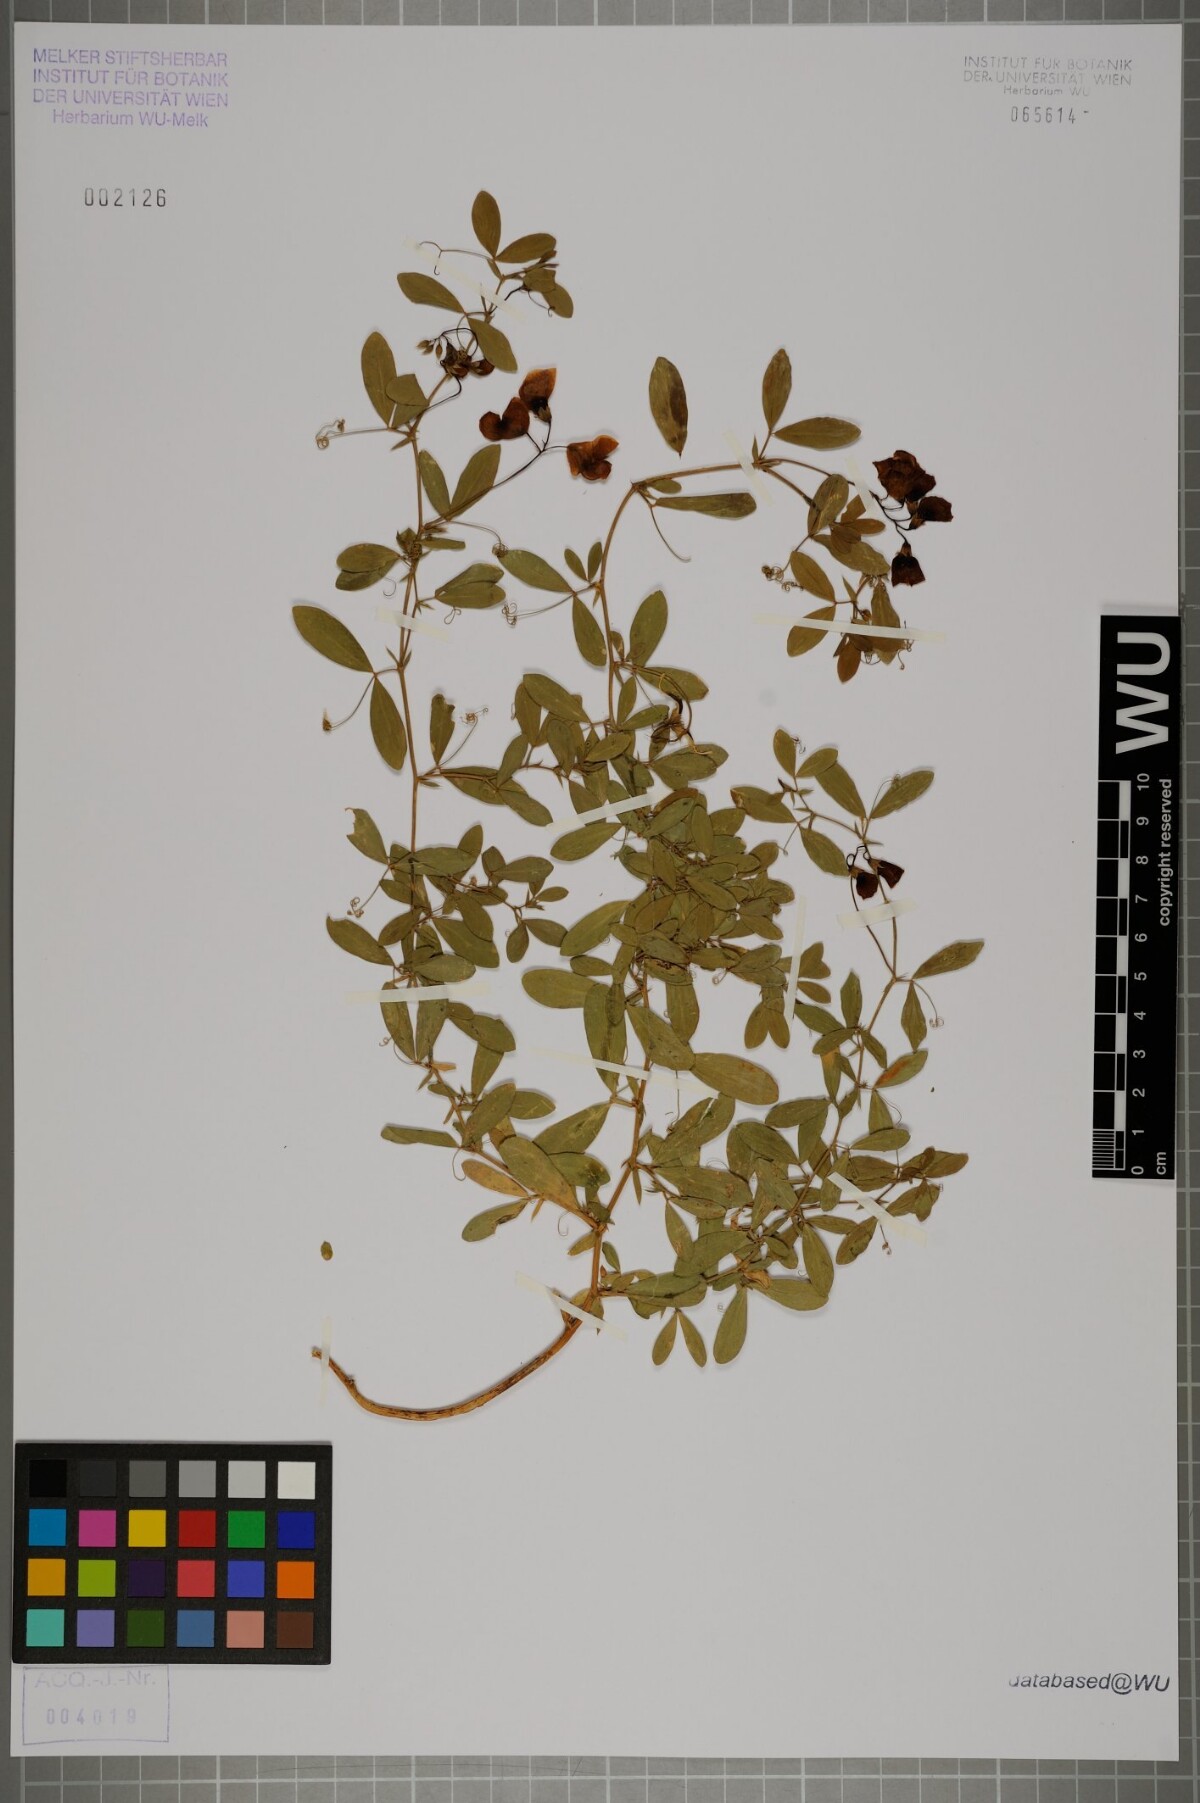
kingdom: Plantae
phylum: Tracheophyta
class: Magnoliopsida
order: Fabales
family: Fabaceae
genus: Lathyrus
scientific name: Lathyrus tuberosus
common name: Tuberous pea
